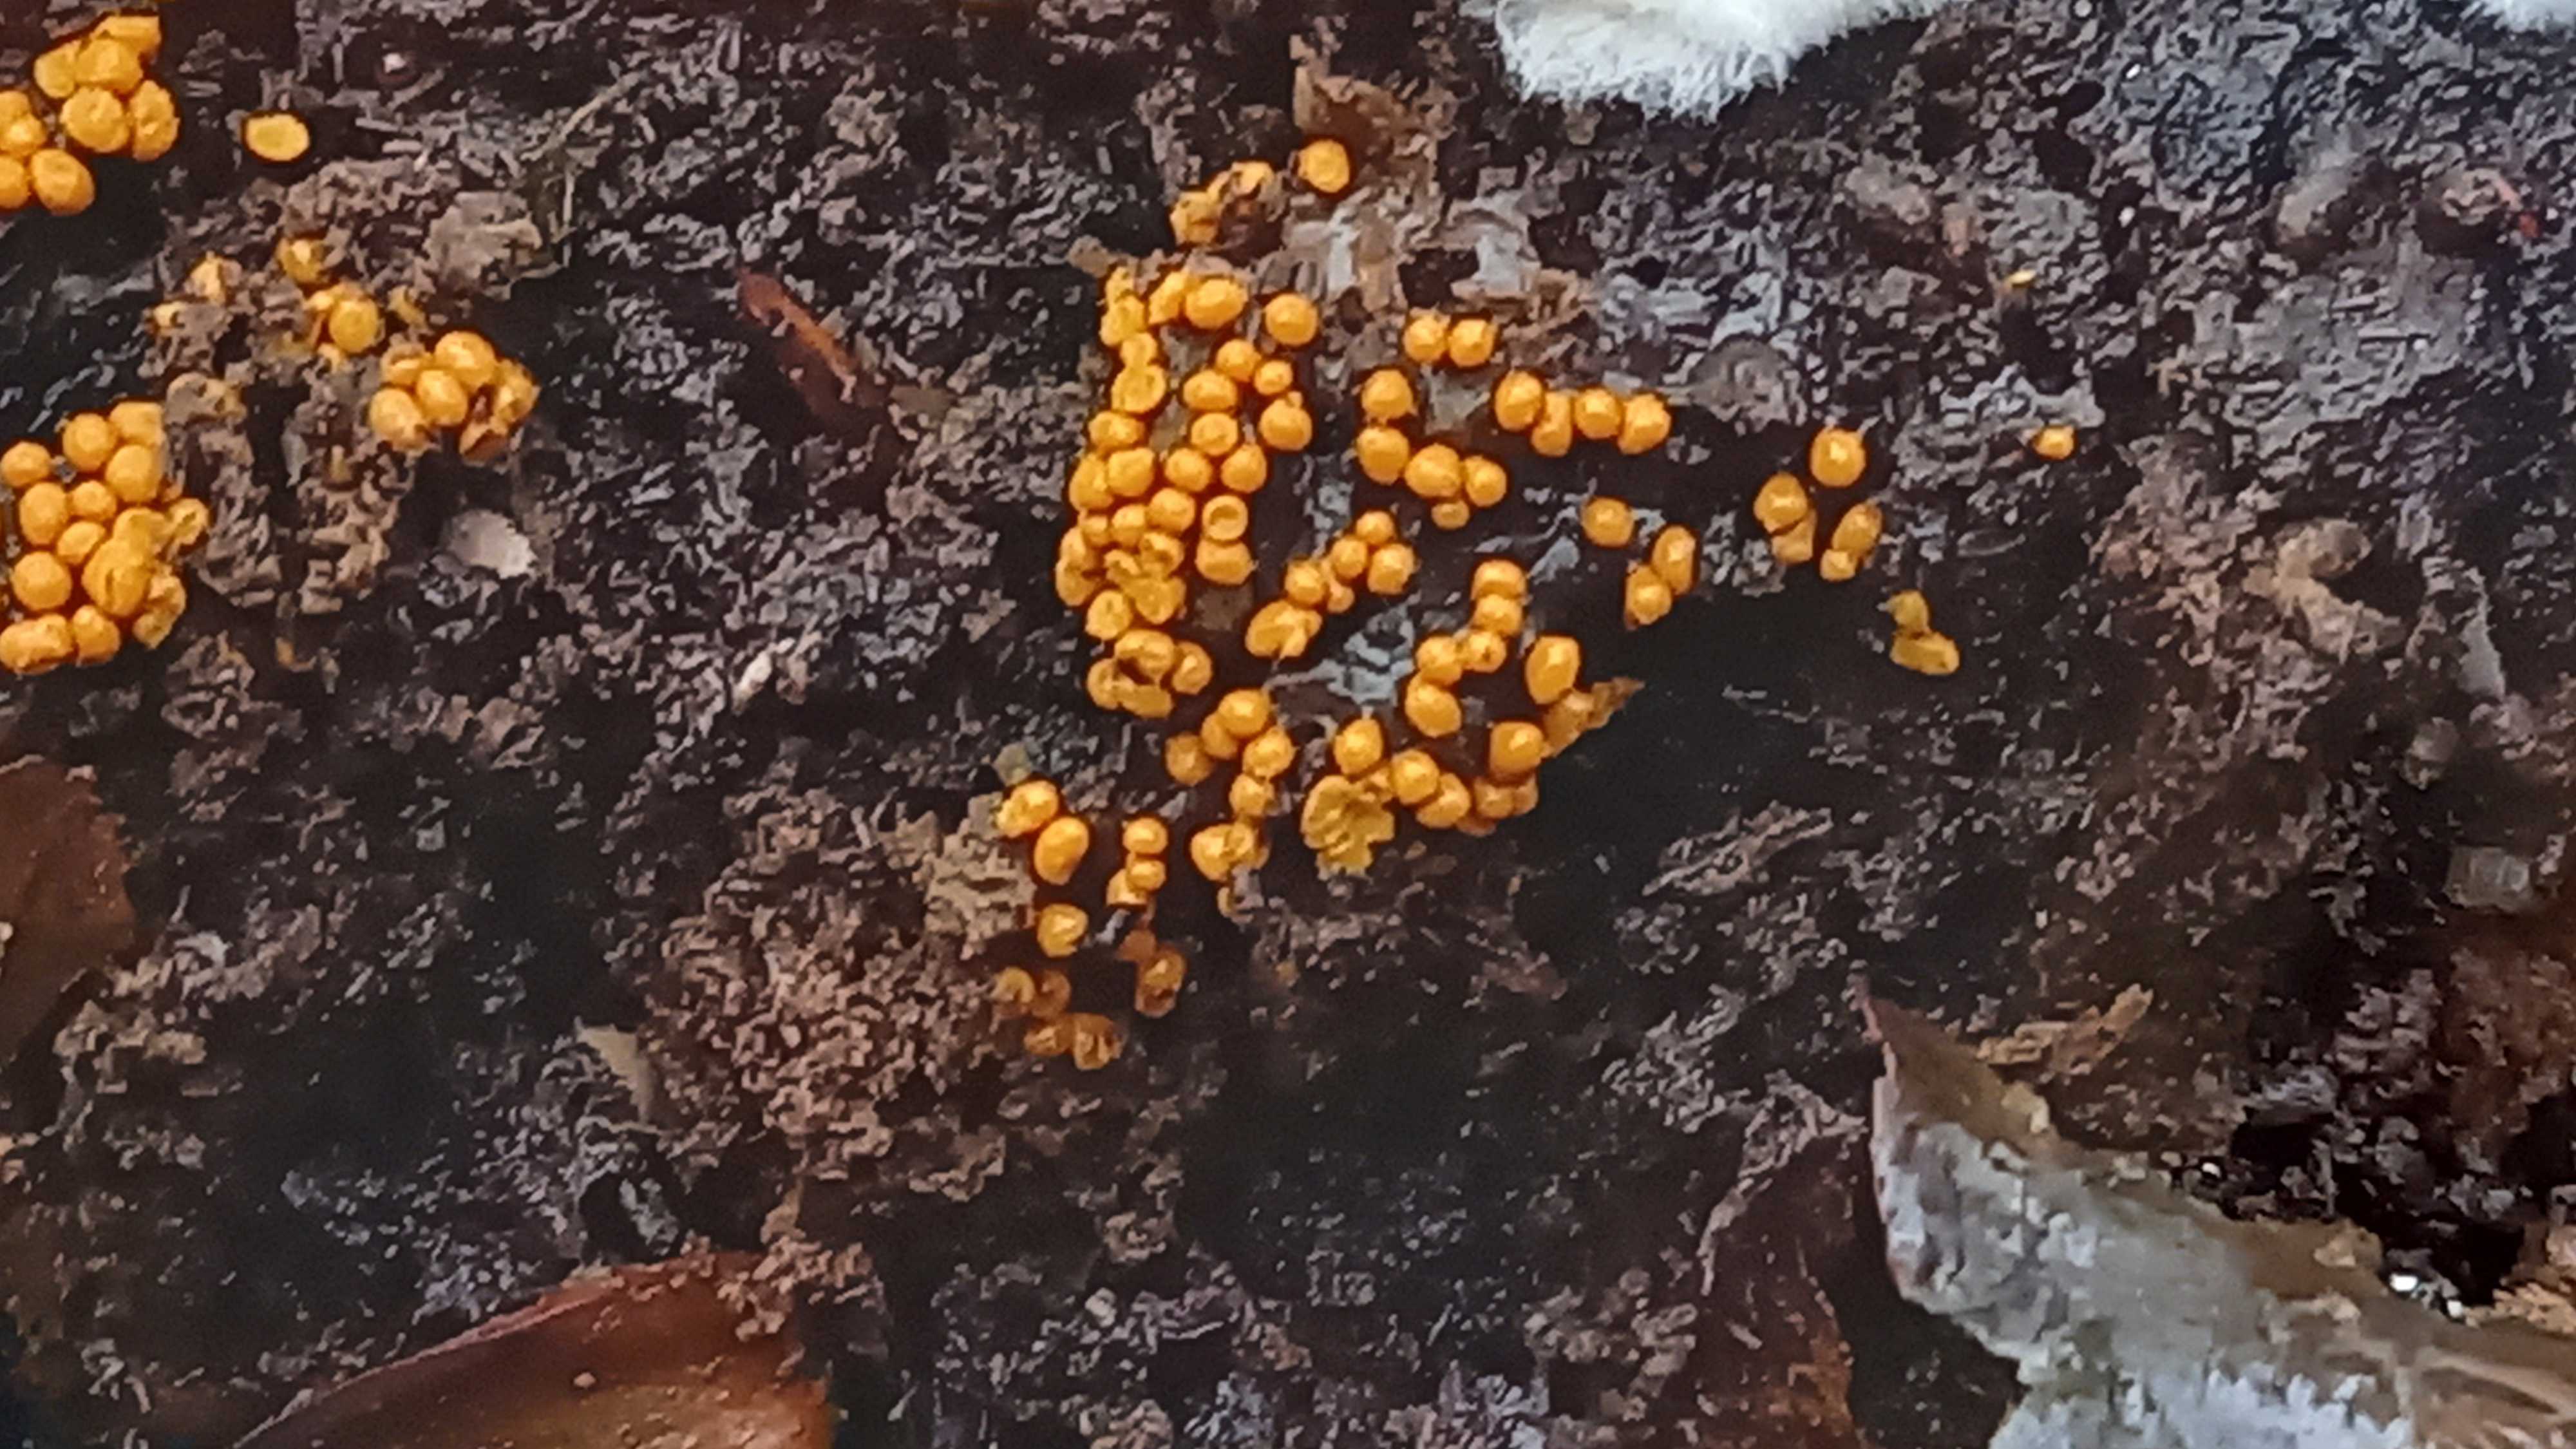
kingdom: Protozoa
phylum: Mycetozoa
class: Myxomycetes
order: Trichiales
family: Trichiaceae
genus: Trichia
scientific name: Trichia
